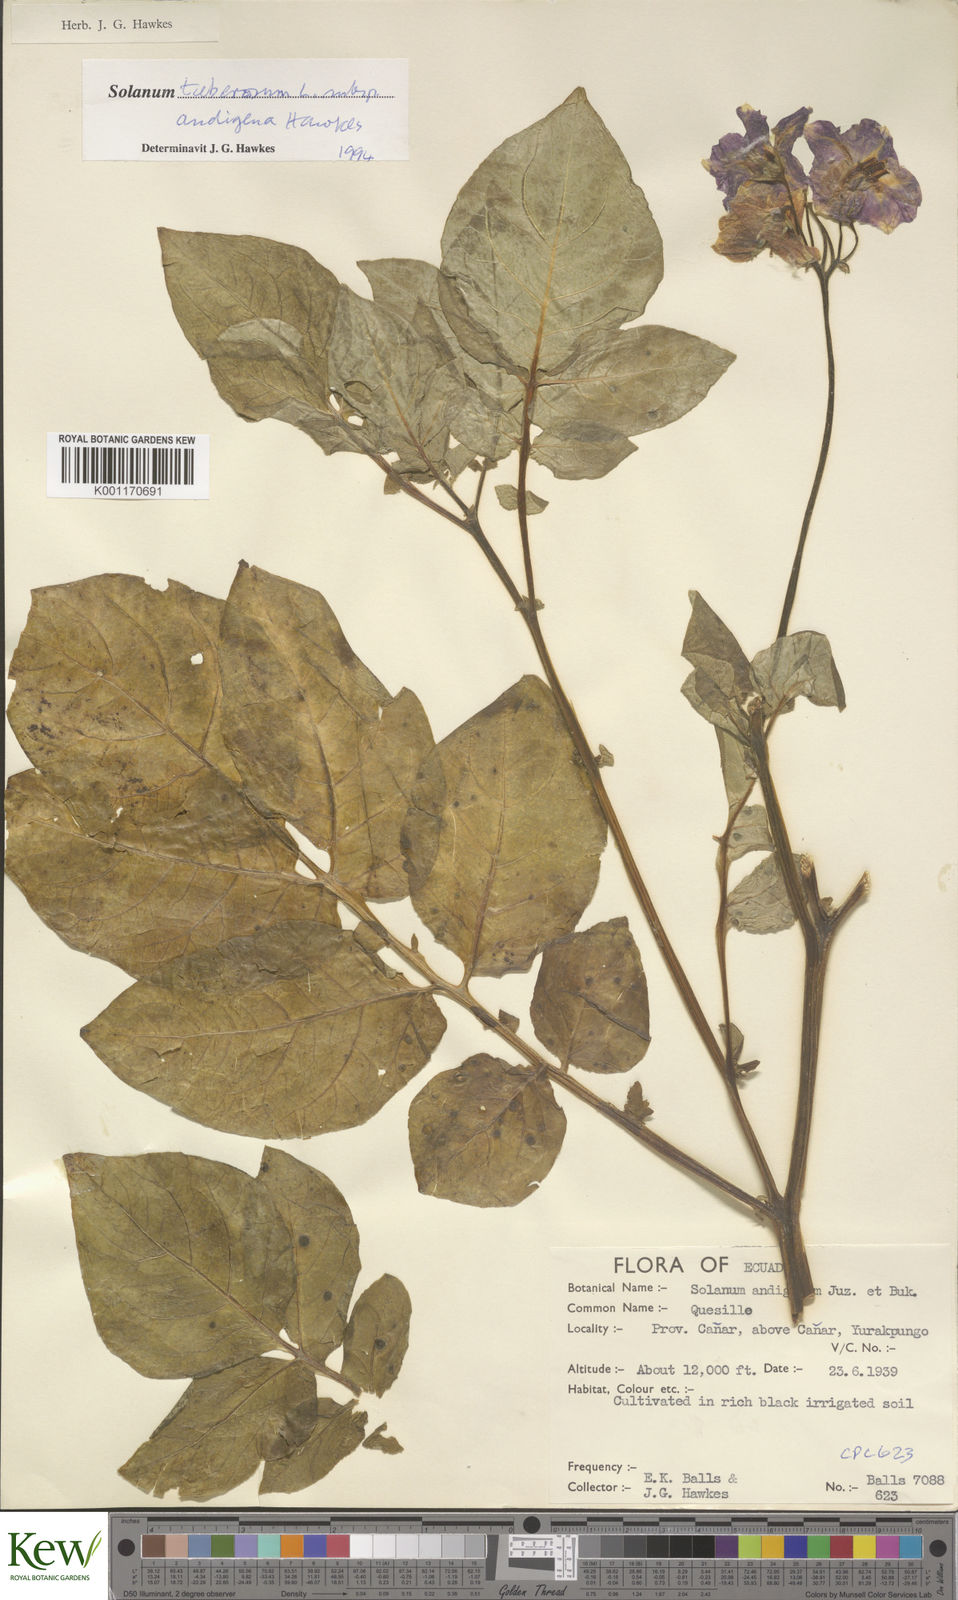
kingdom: Plantae
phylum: Tracheophyta
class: Magnoliopsida
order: Solanales
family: Solanaceae
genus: Solanum
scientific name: Solanum tuberosum
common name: Potato
